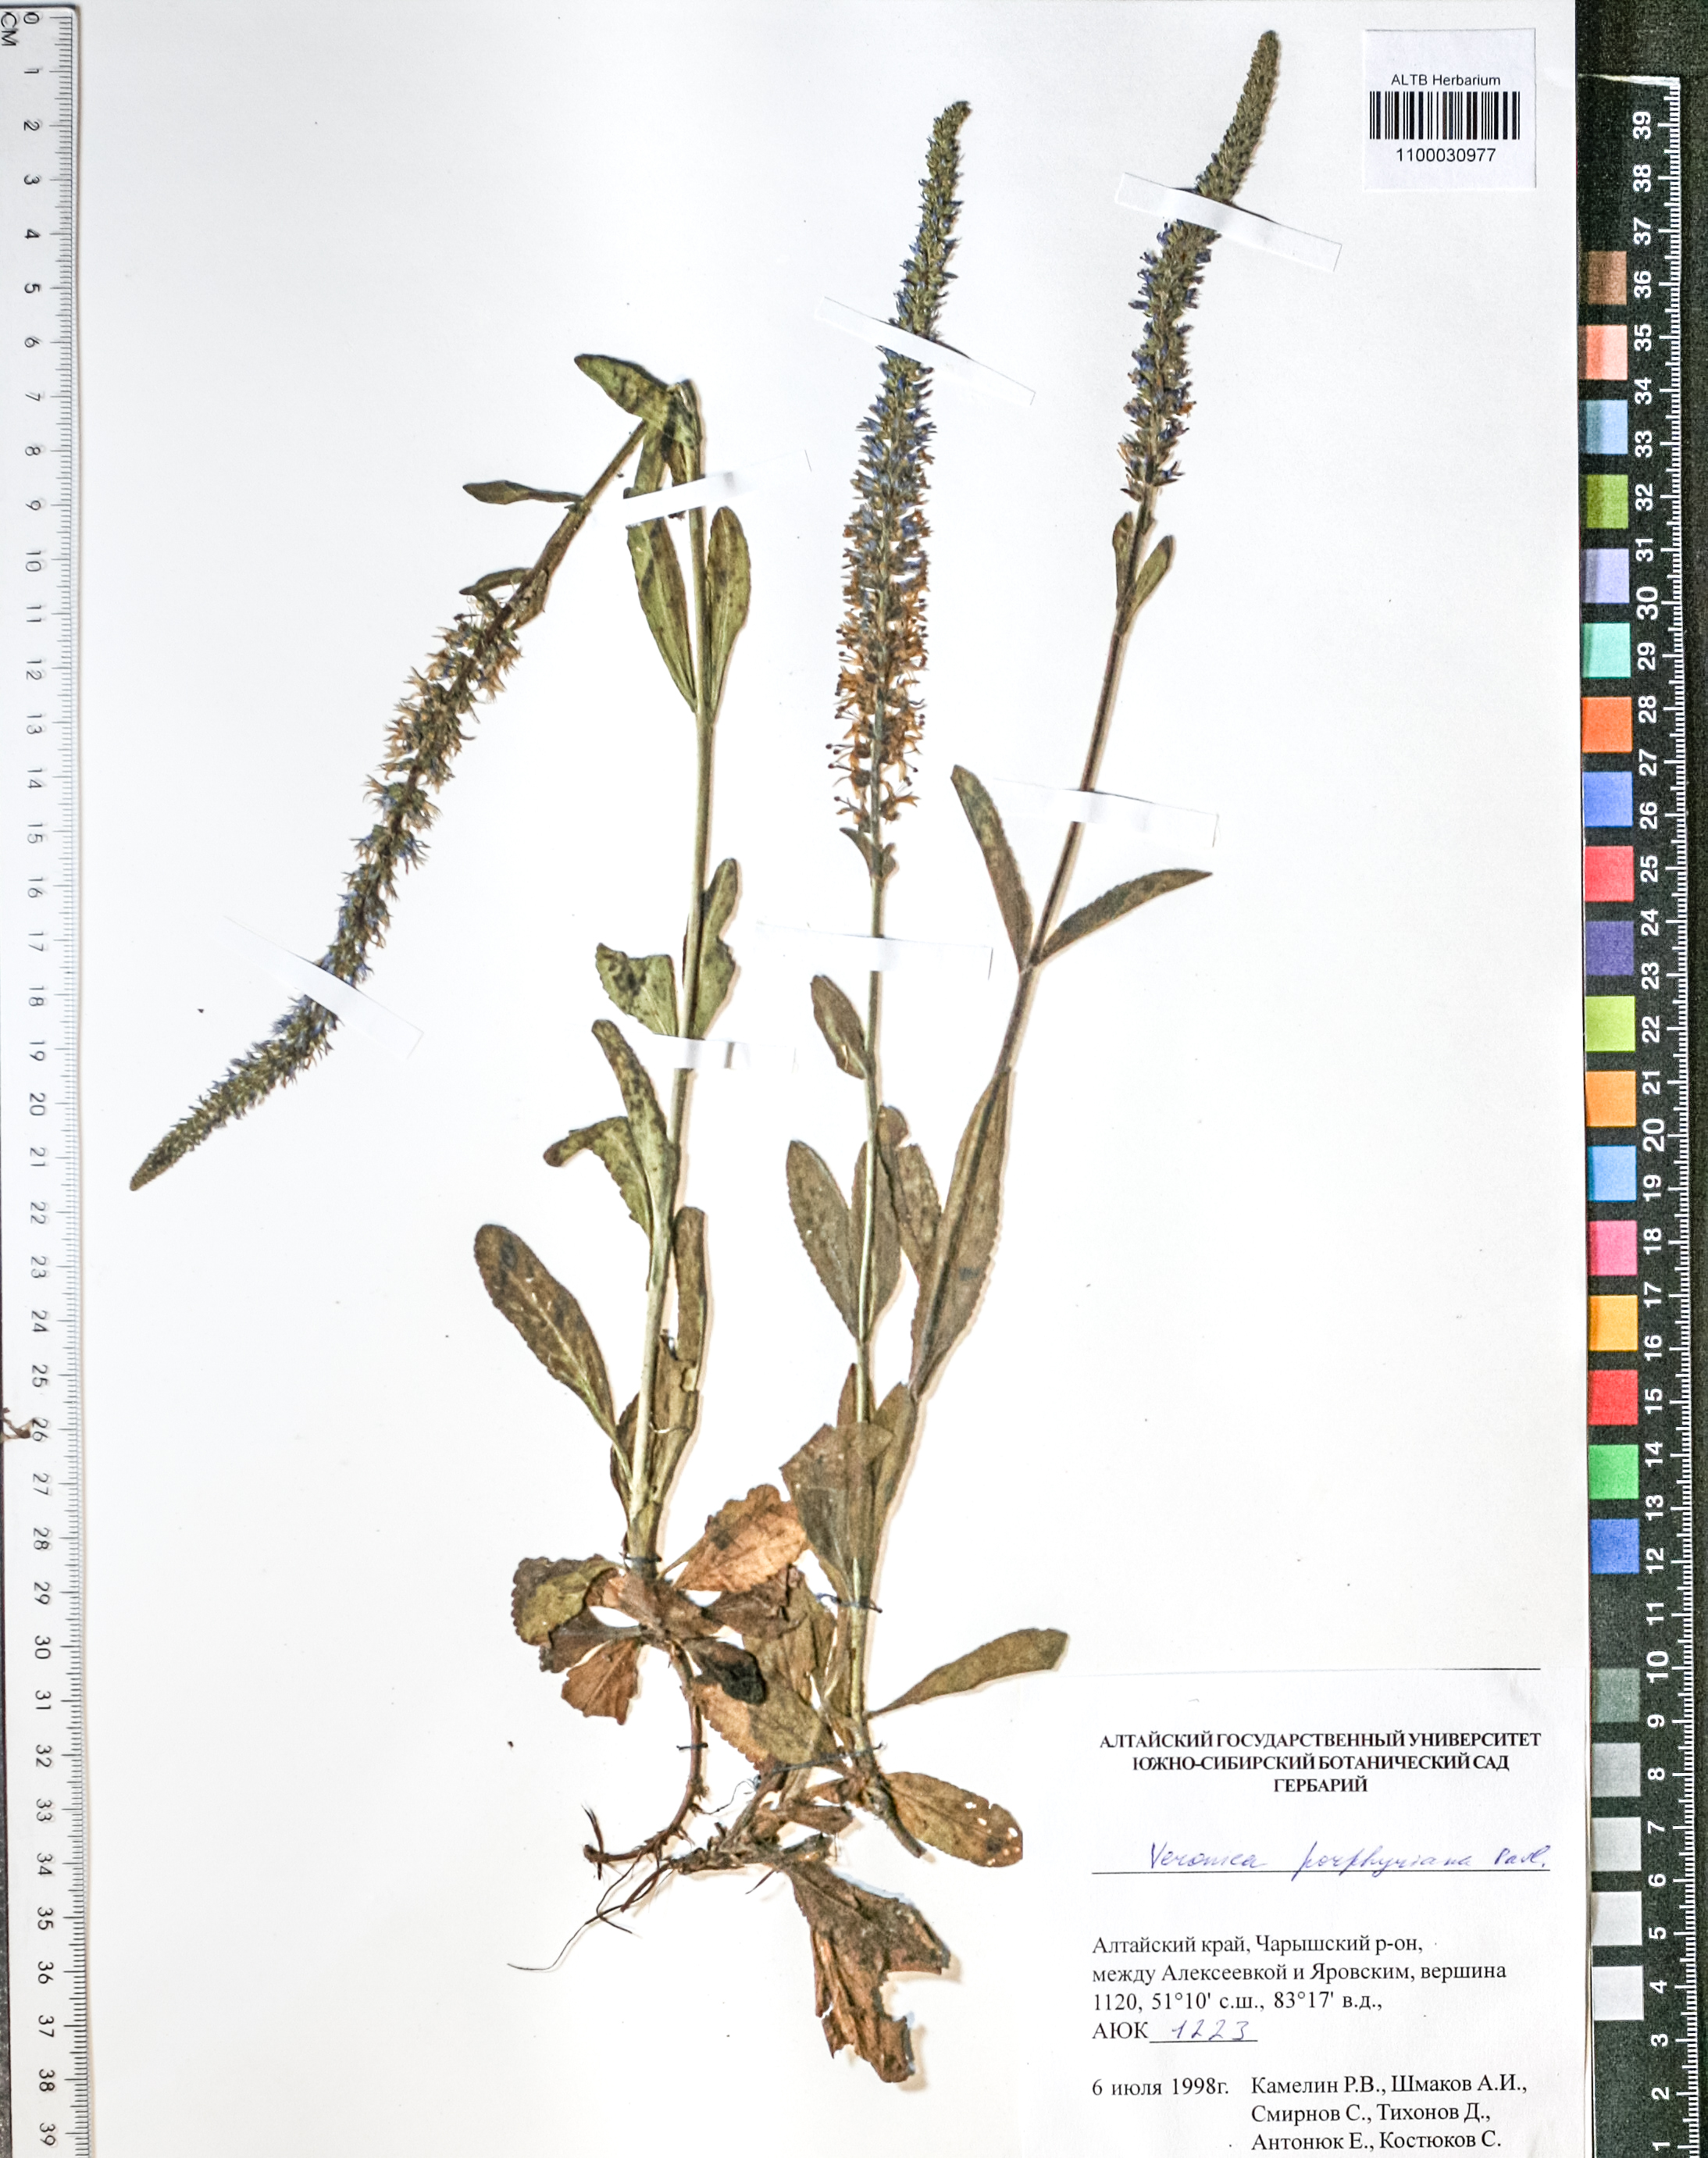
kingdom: Plantae
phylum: Tracheophyta
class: Magnoliopsida
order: Lamiales
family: Plantaginaceae
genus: Veronica
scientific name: Veronica porphyriana
